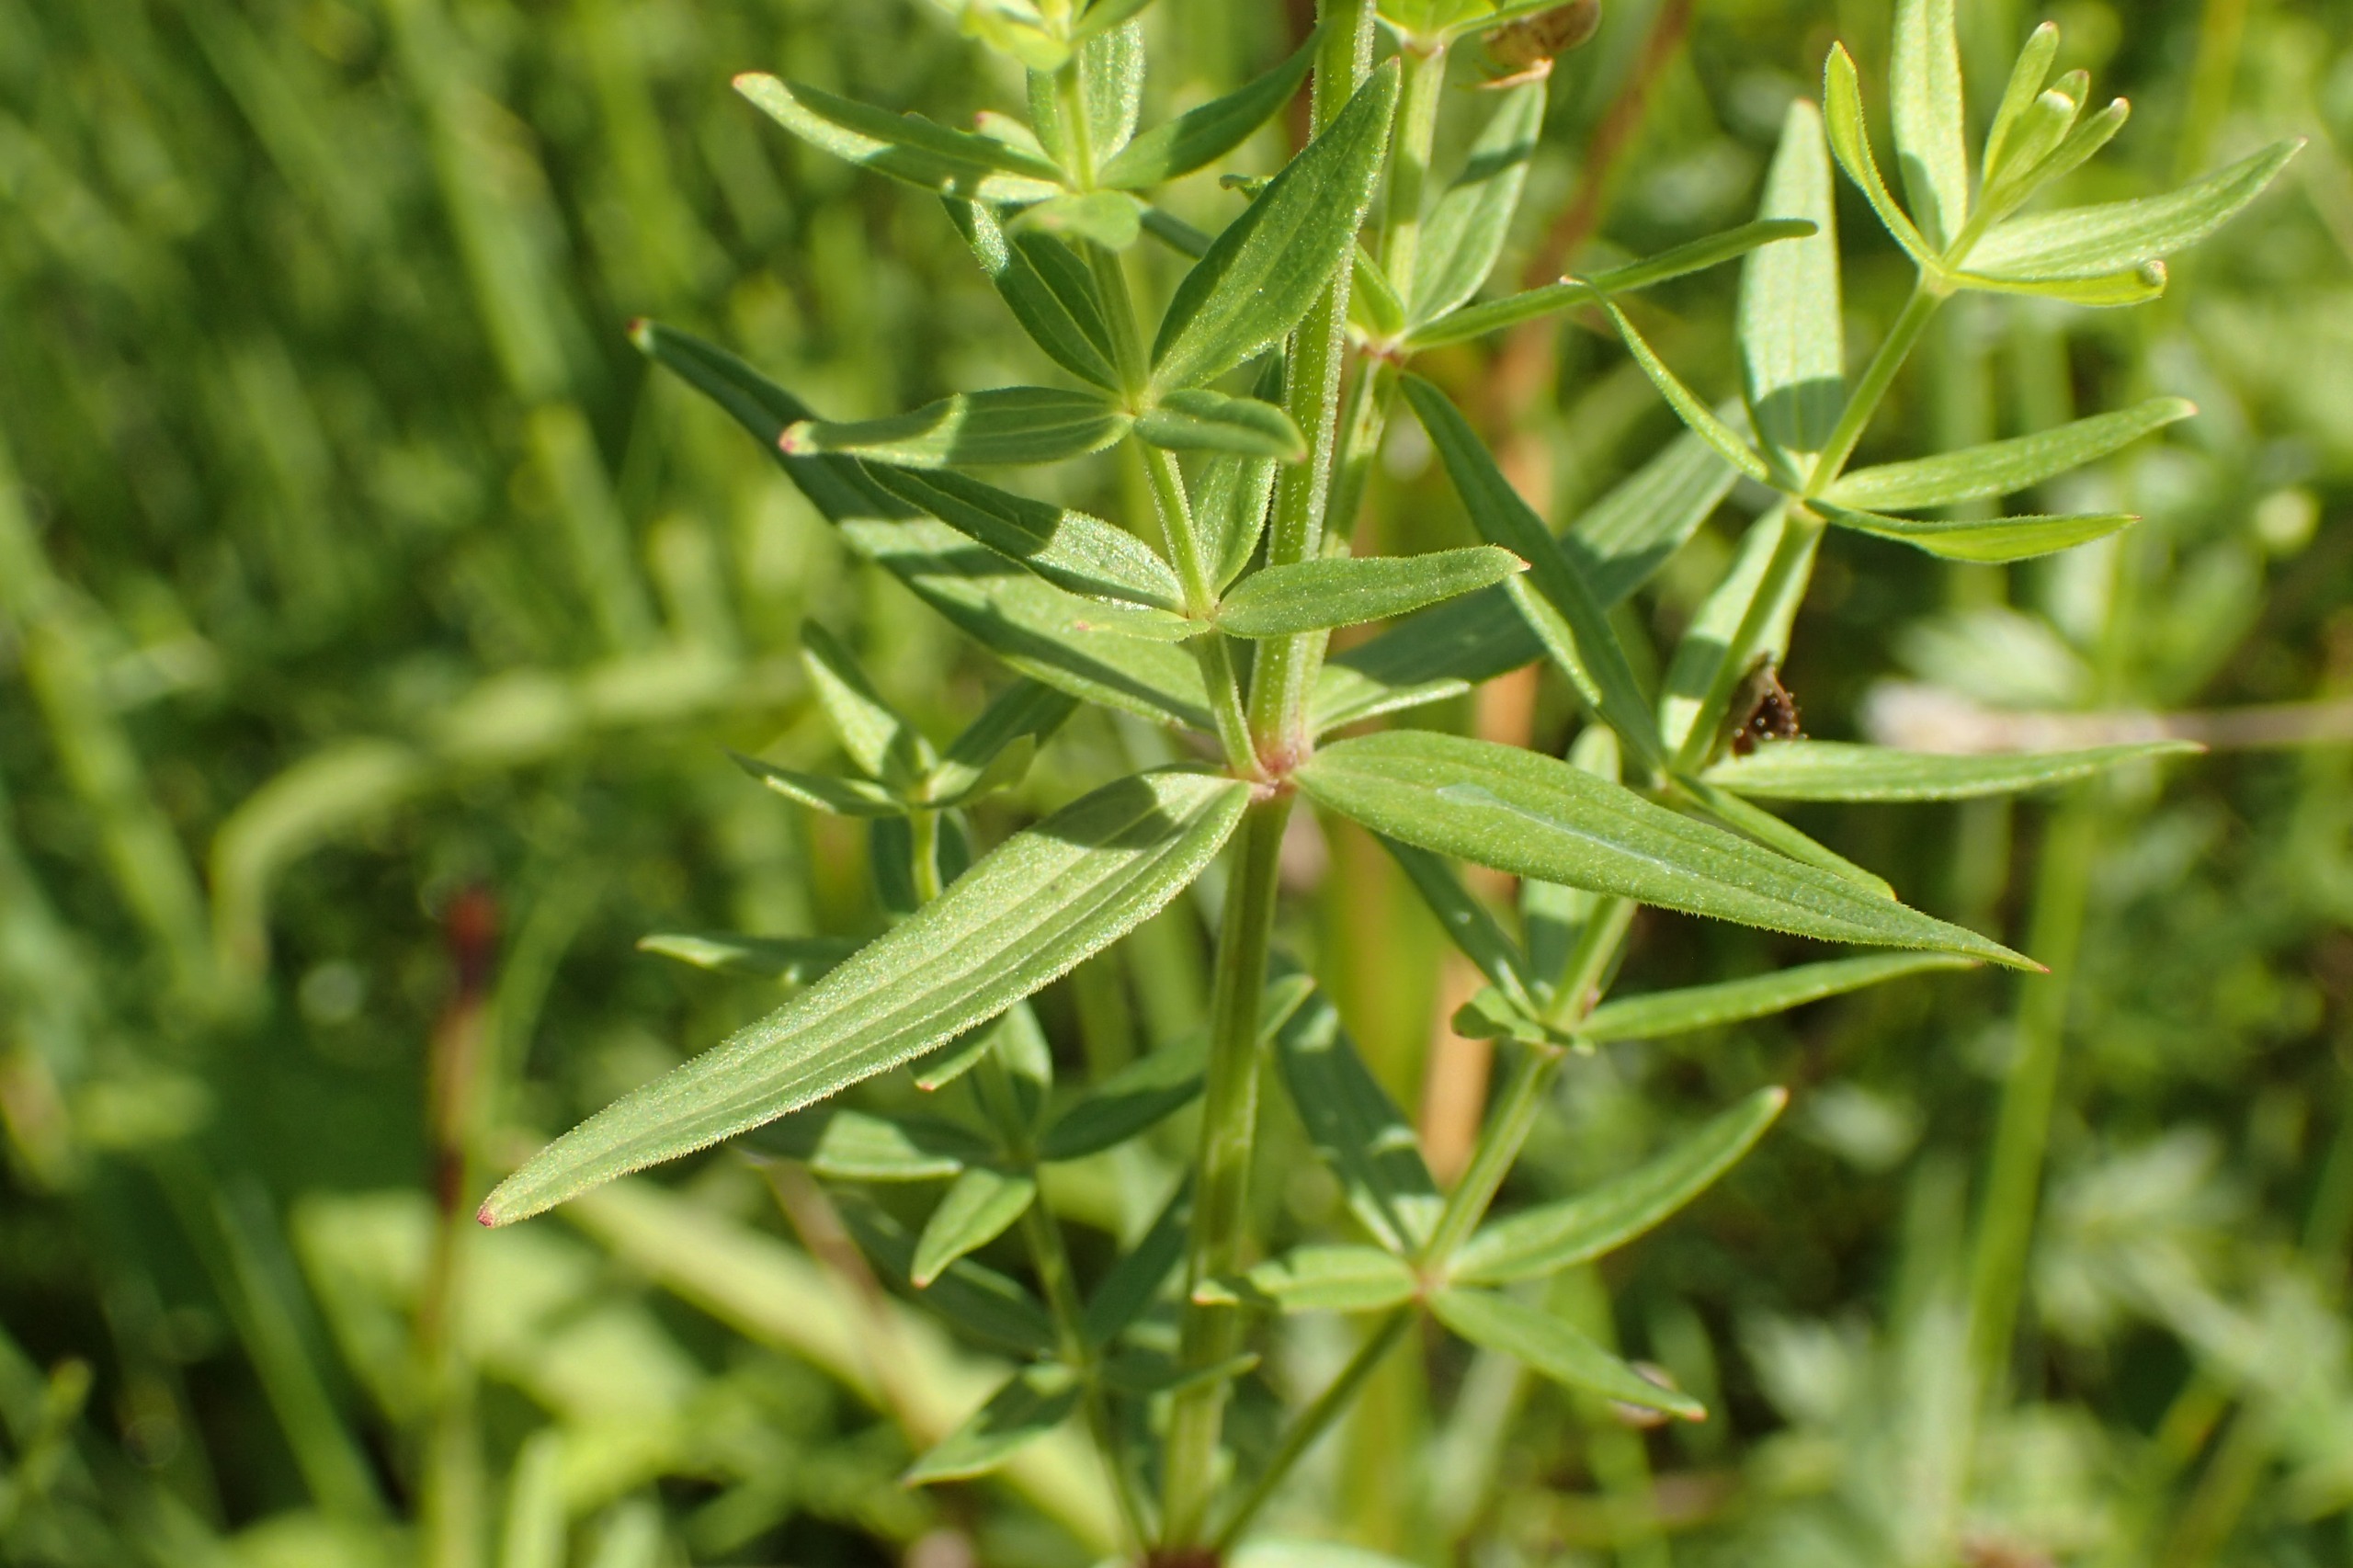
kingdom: Plantae
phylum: Tracheophyta
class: Magnoliopsida
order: Gentianales
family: Rubiaceae
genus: Galium
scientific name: Galium boreale
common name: Trenervet snerre
